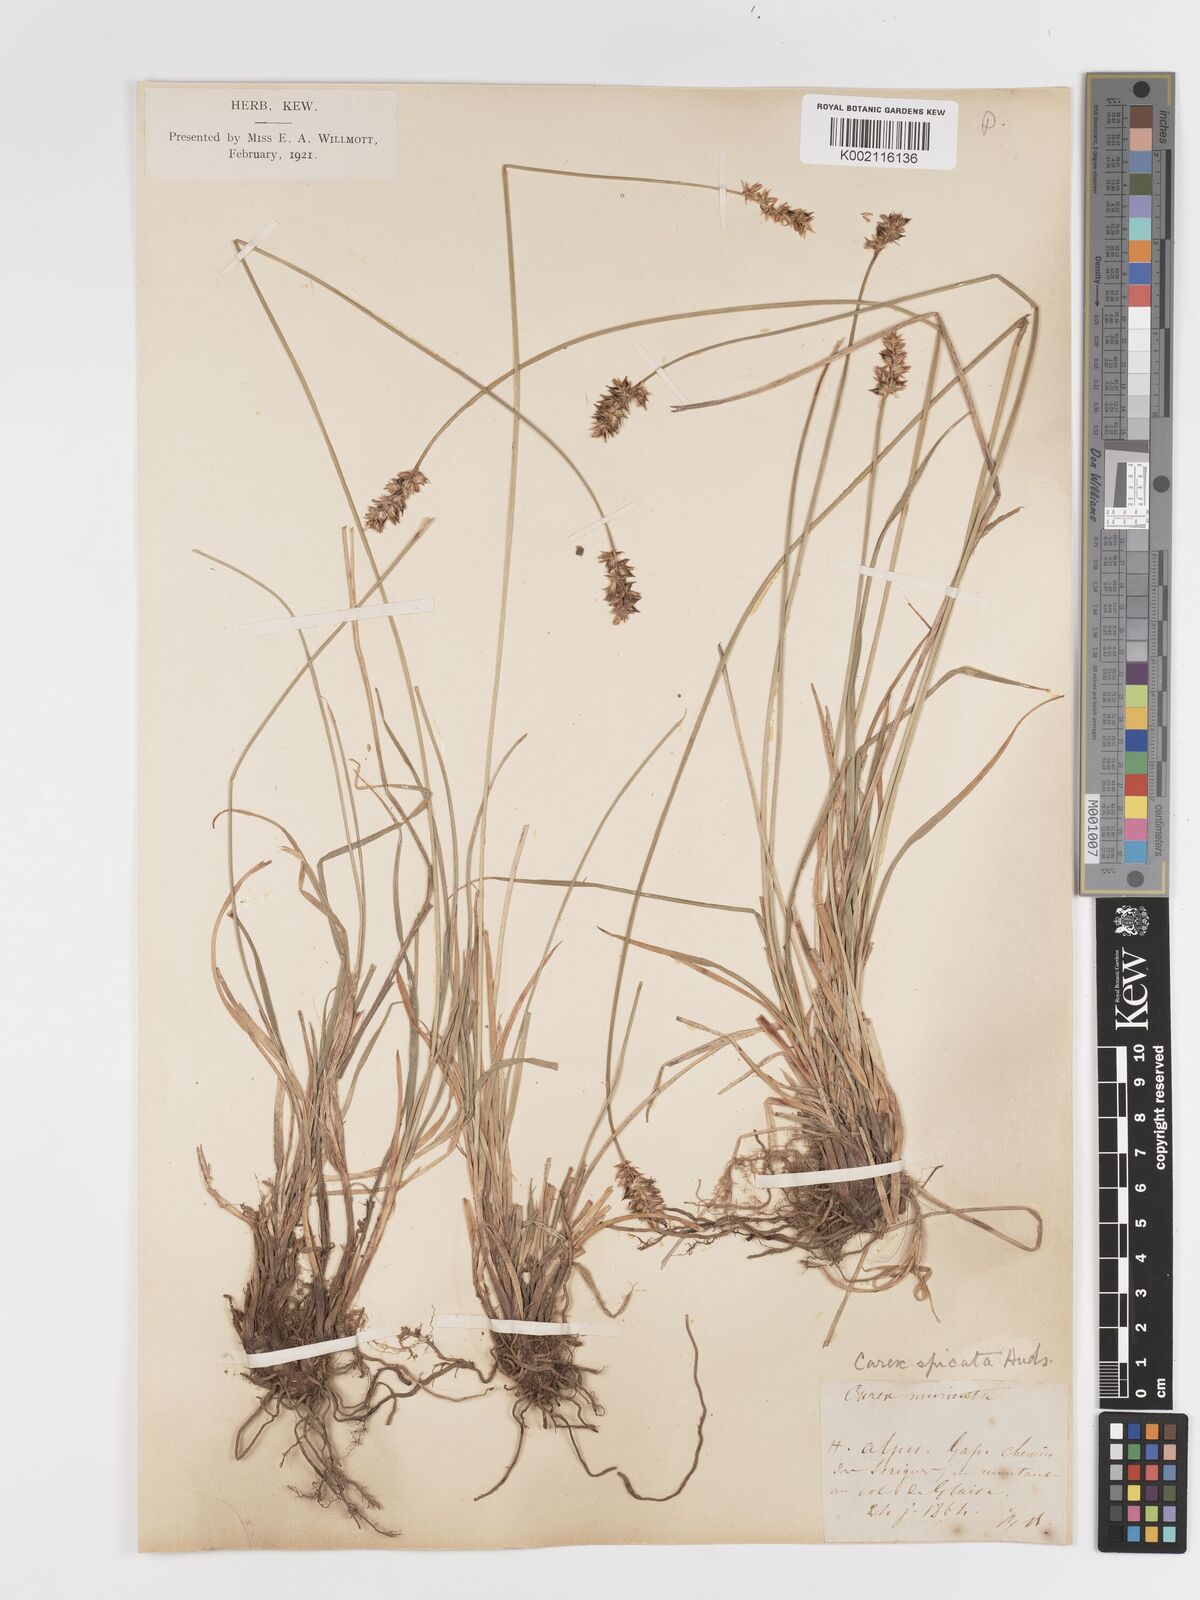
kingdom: Plantae
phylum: Tracheophyta
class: Liliopsida
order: Poales
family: Cyperaceae
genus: Carex
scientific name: Carex spicata
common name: Spiked sedge
